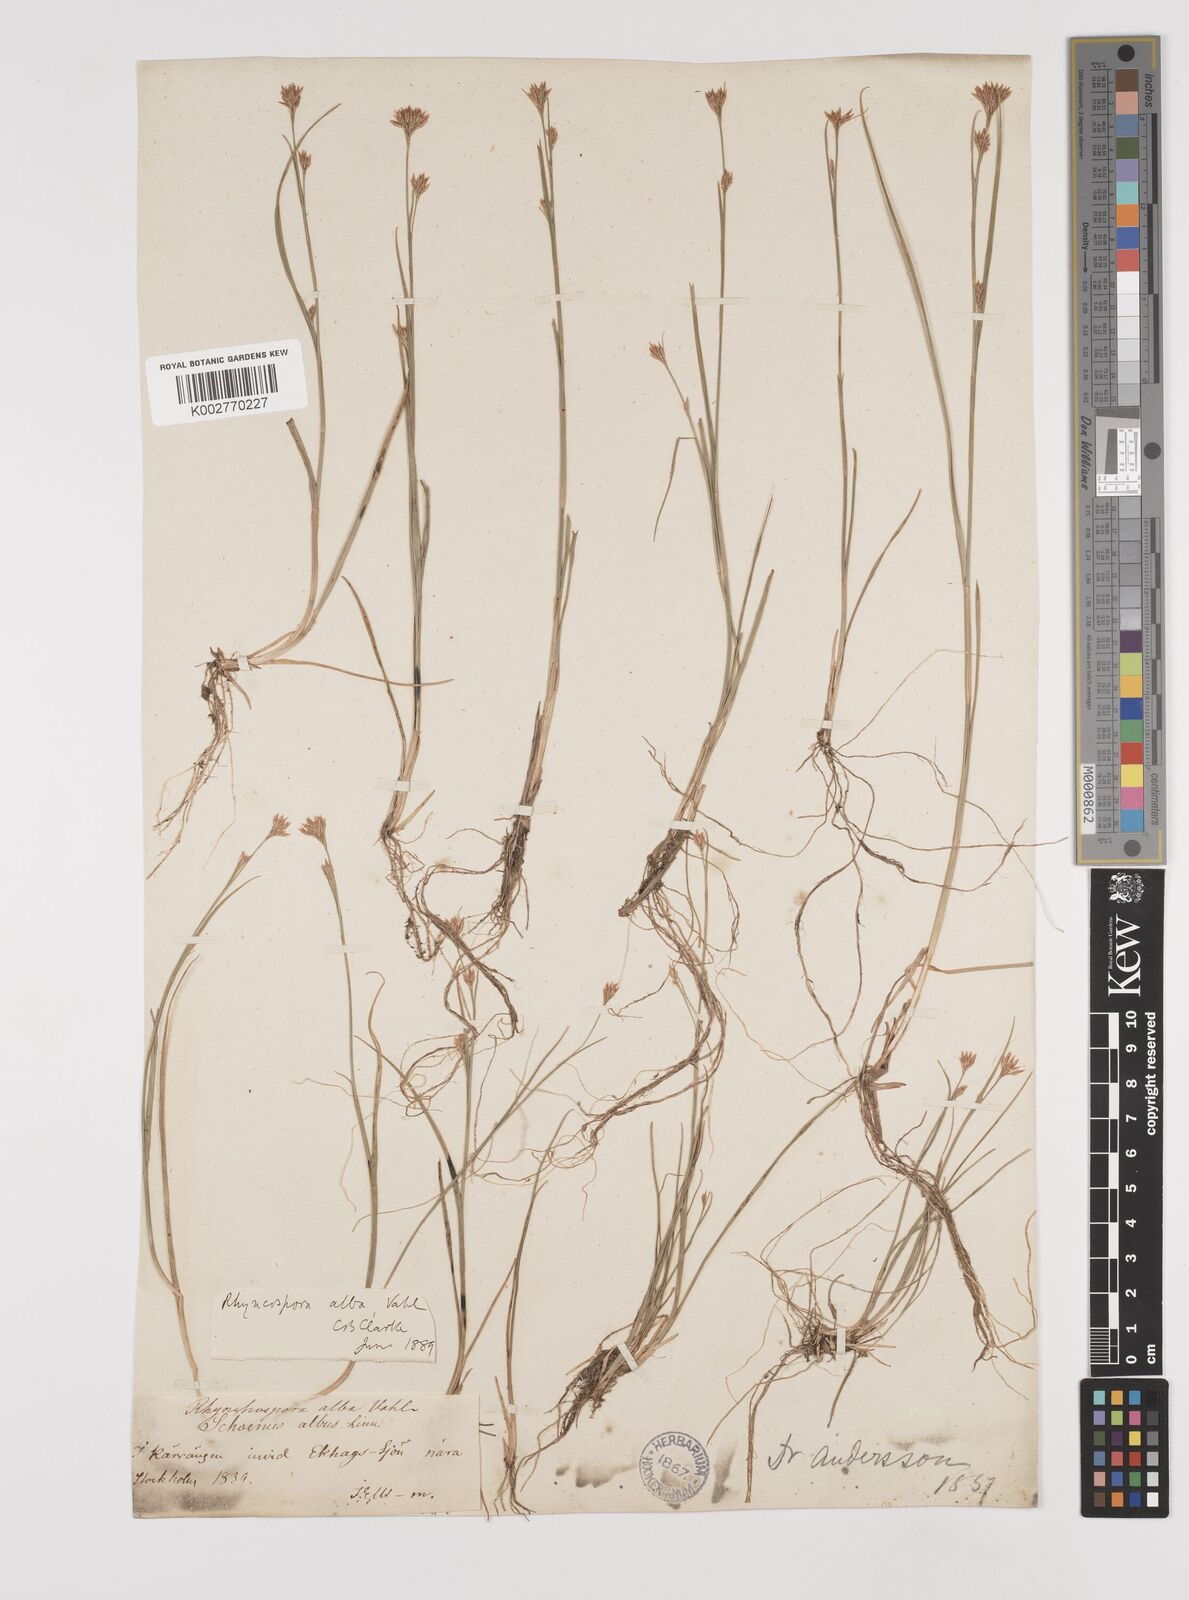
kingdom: Plantae
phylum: Tracheophyta
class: Liliopsida
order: Poales
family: Cyperaceae
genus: Rhynchospora
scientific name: Rhynchospora alba
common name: White beak-sedge
